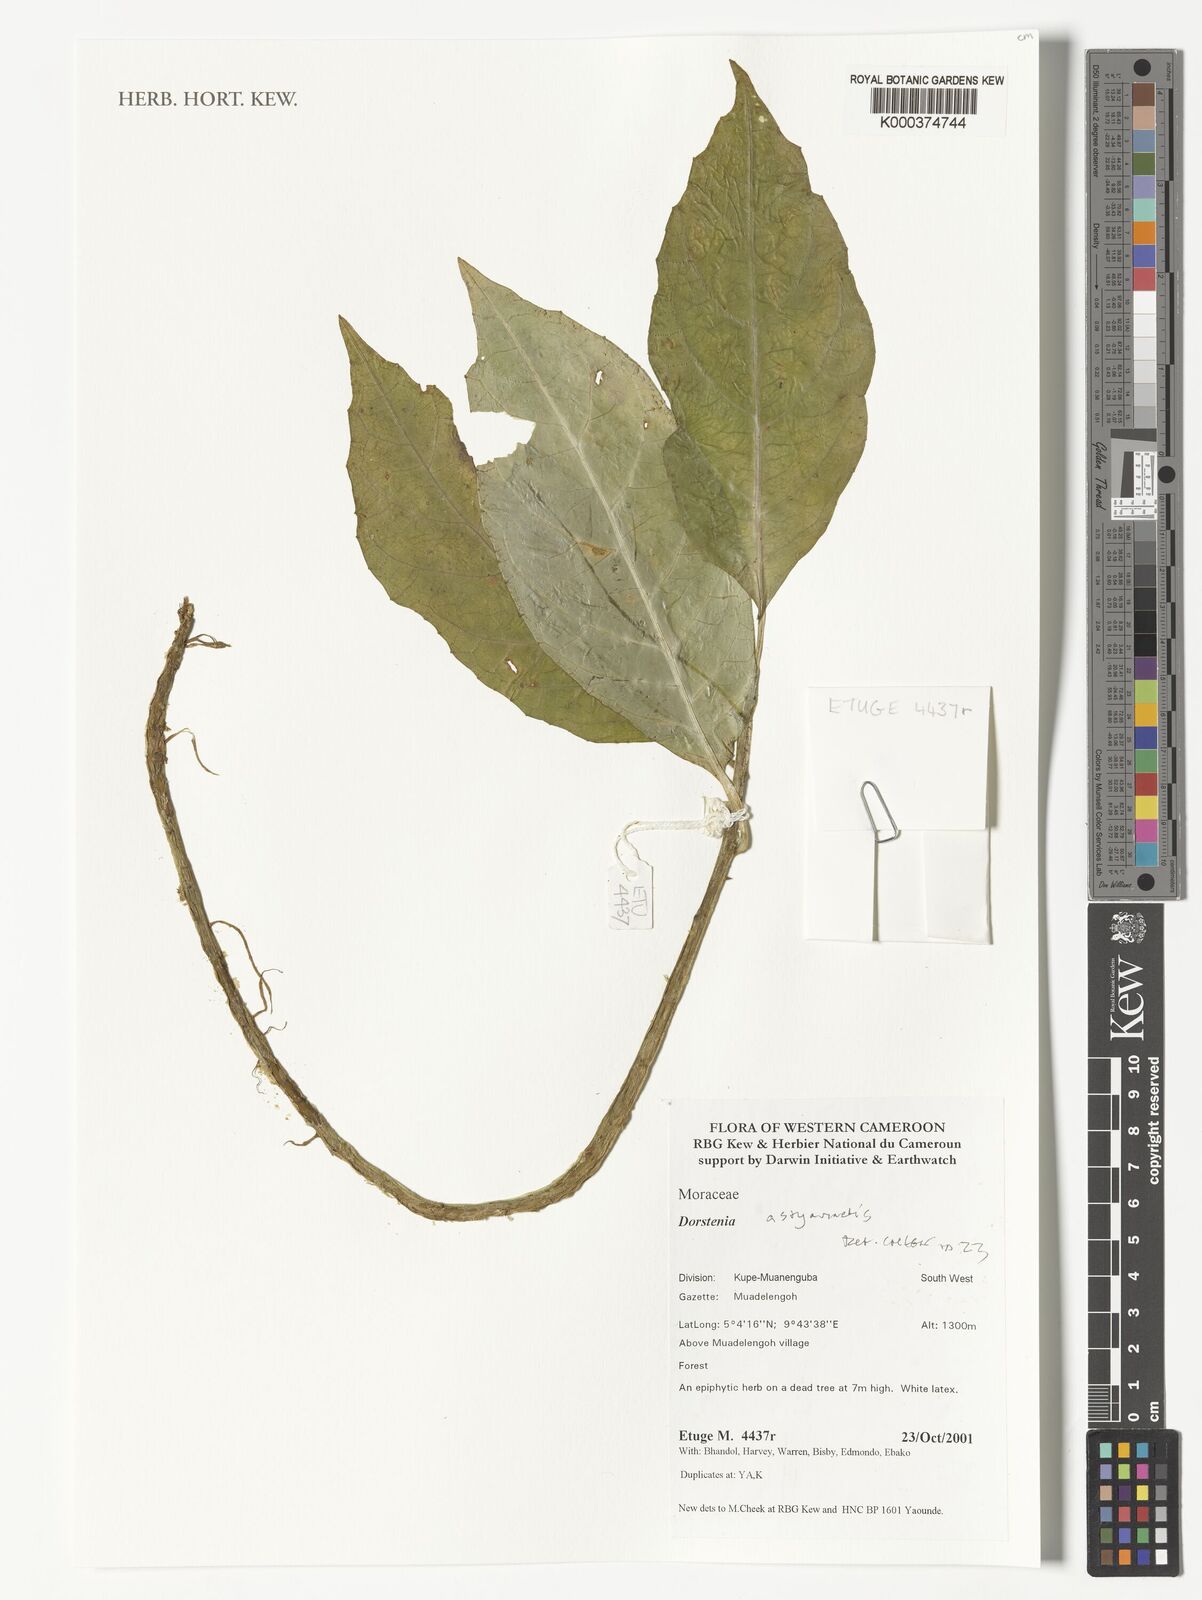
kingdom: Plantae
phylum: Tracheophyta
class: Magnoliopsida
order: Rosales
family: Moraceae
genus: Dorstenia
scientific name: Dorstenia astyanactis
